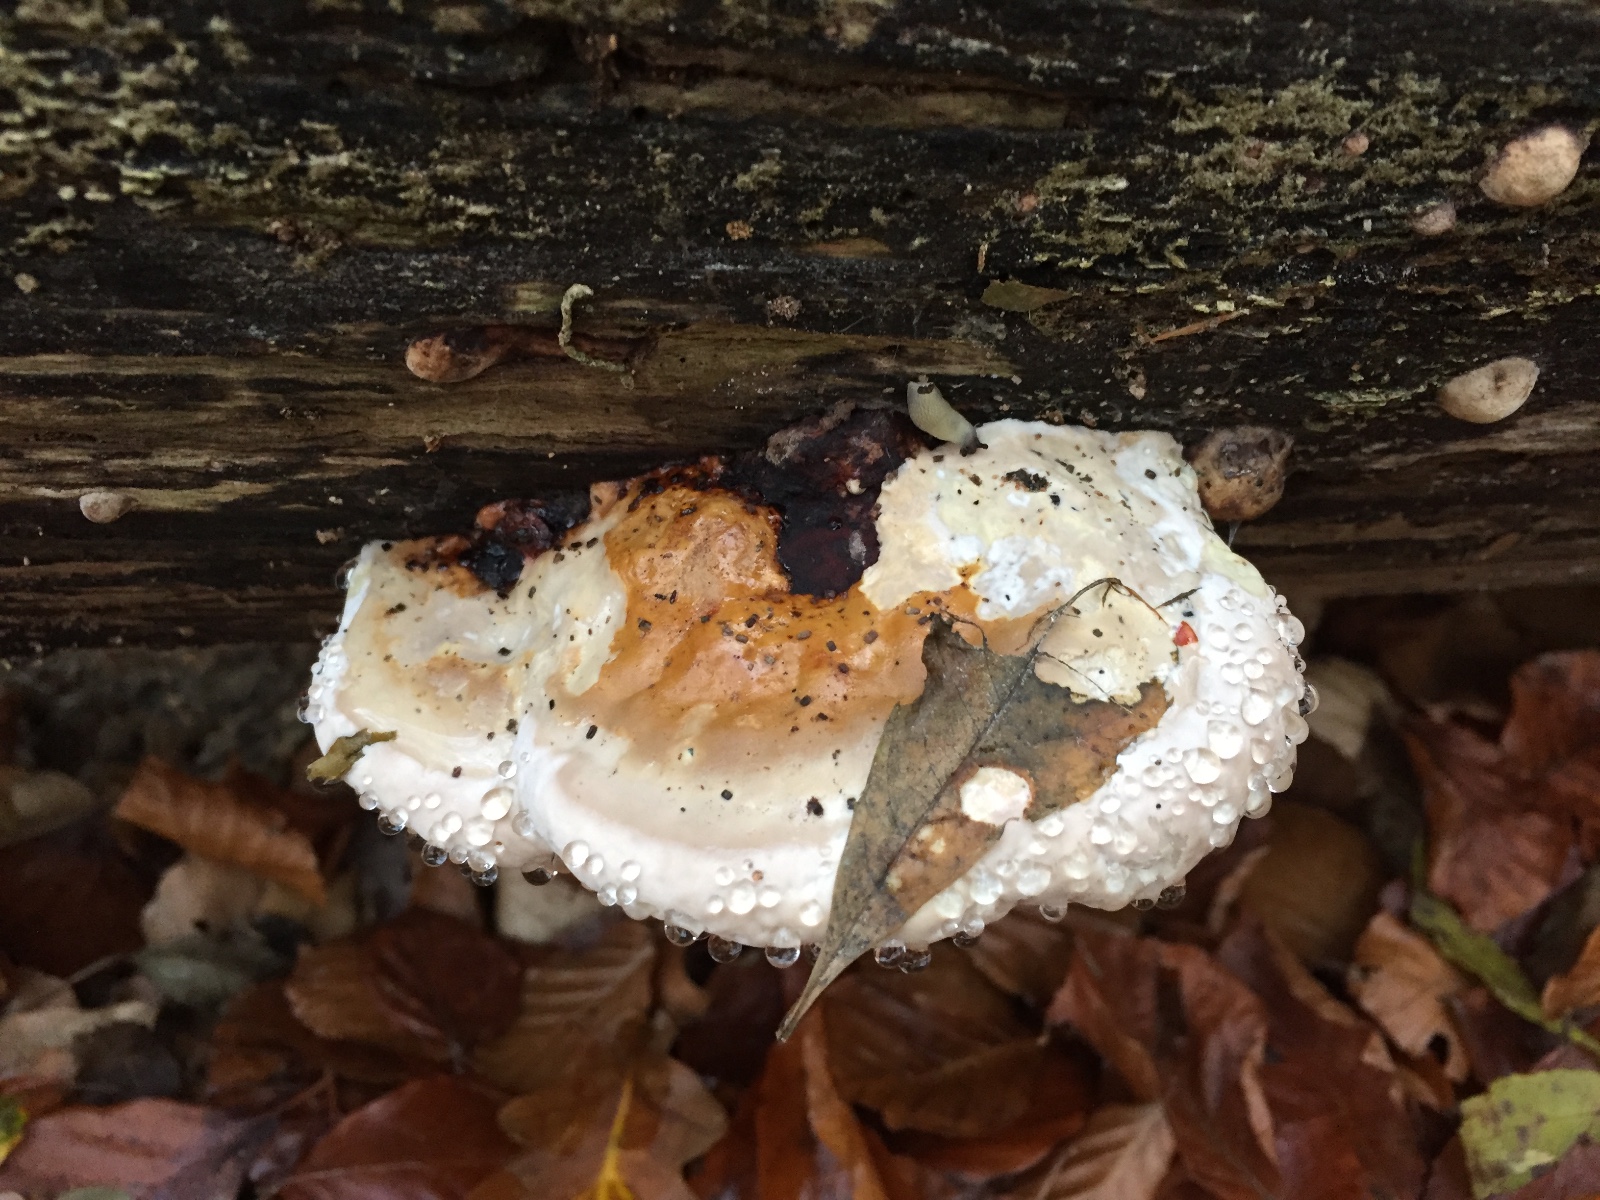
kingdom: Fungi
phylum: Basidiomycota
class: Agaricomycetes
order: Polyporales
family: Fomitopsidaceae
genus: Fomitopsis
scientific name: Fomitopsis pinicola
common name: randbæltet hovporesvamp
